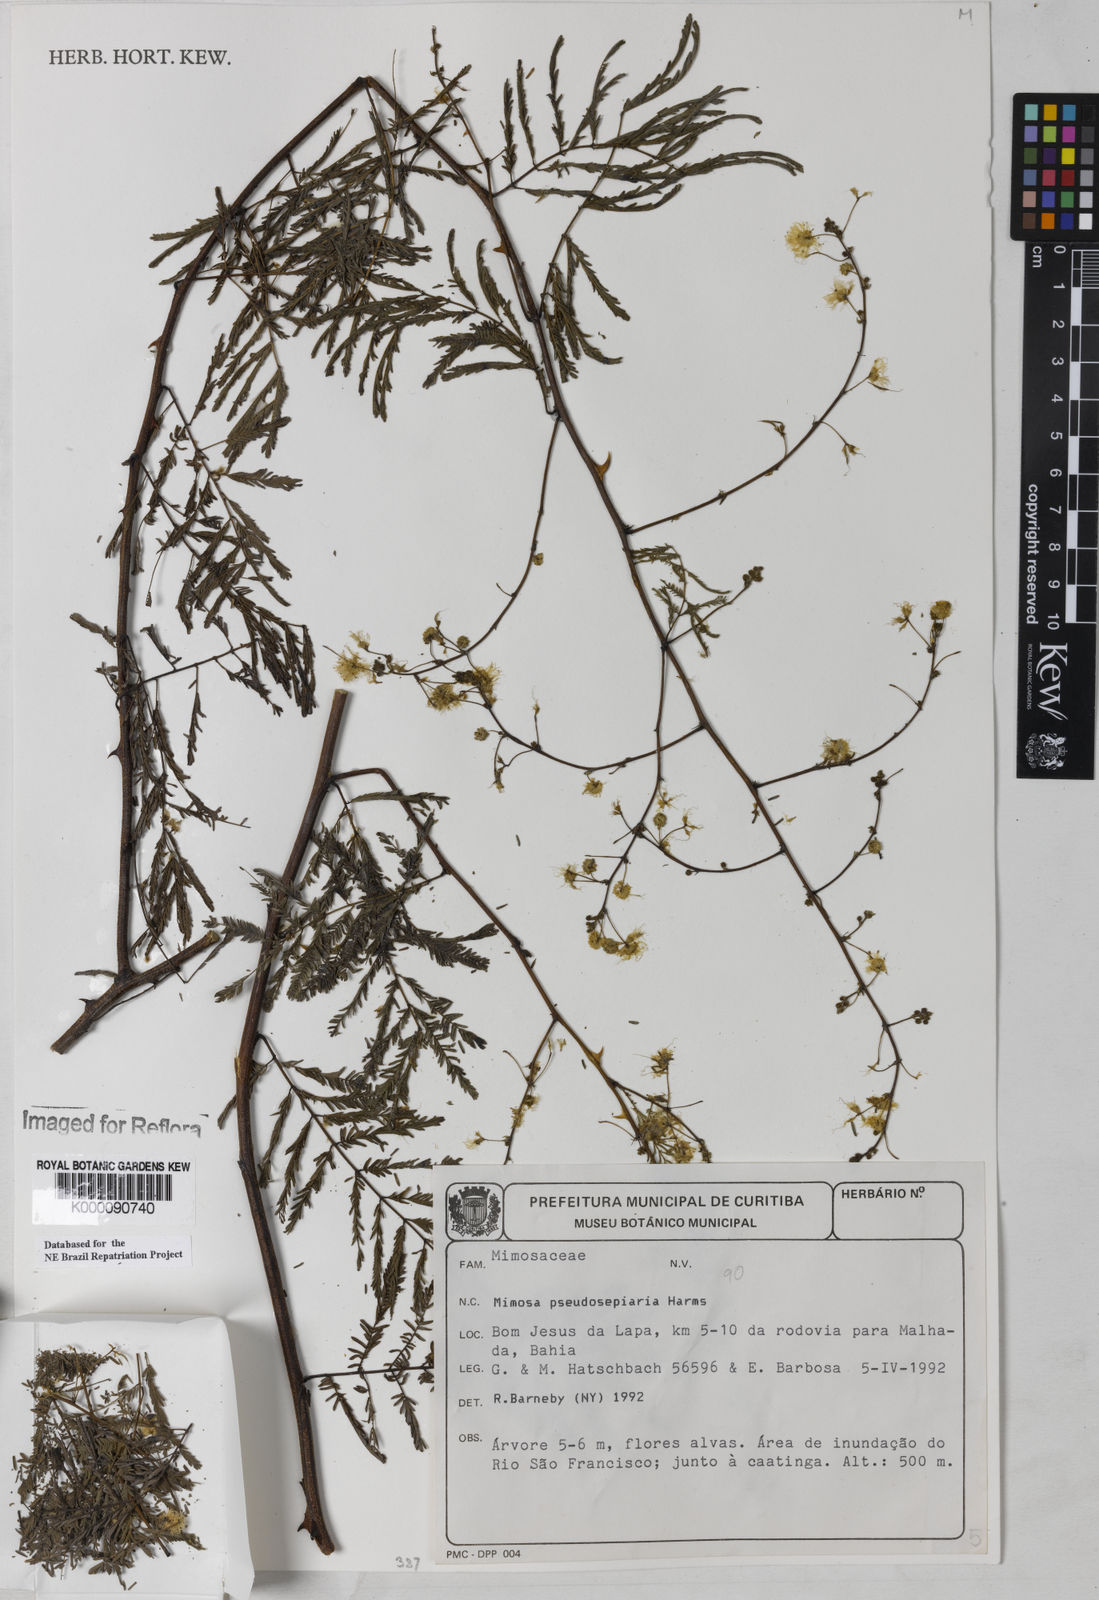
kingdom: Plantae
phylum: Tracheophyta
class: Magnoliopsida
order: Fabales
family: Fabaceae
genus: Mimosa
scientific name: Mimosa pseudosepiaria
